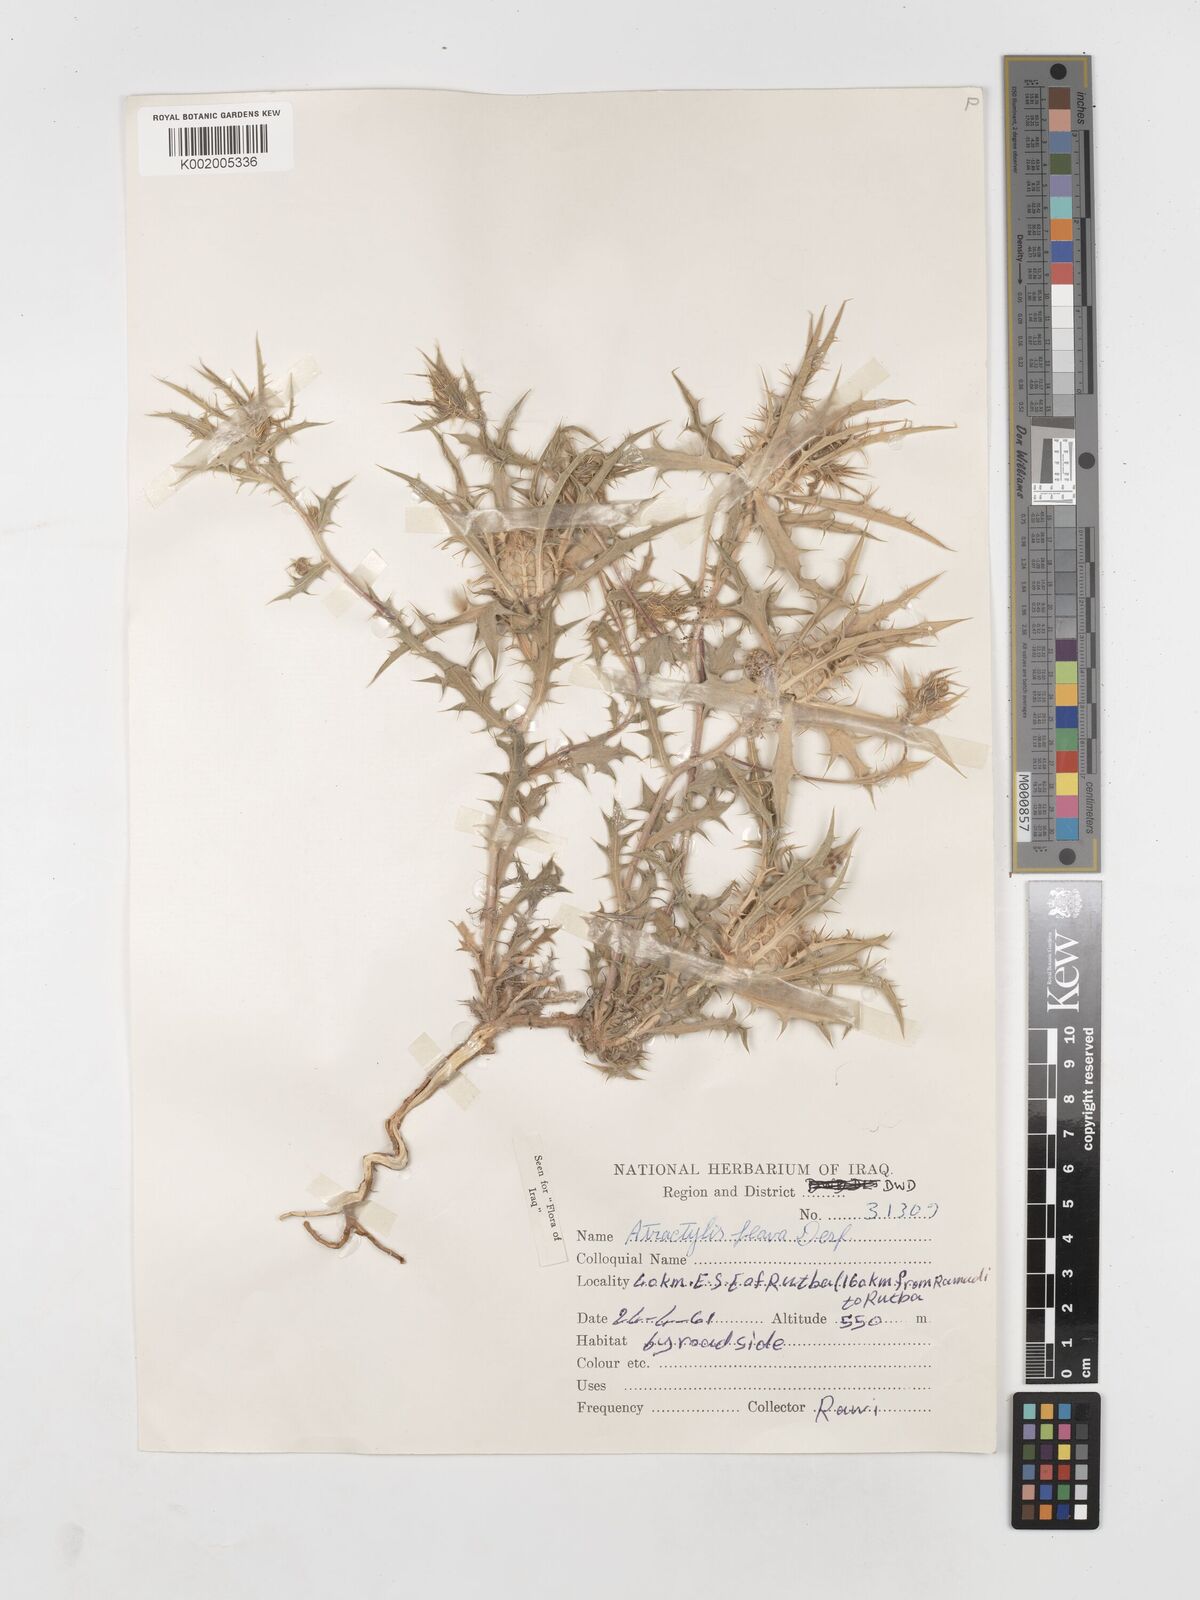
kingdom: Plantae
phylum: Tracheophyta
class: Magnoliopsida
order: Asterales
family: Asteraceae
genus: Atractylis
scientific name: Atractylis carduus
